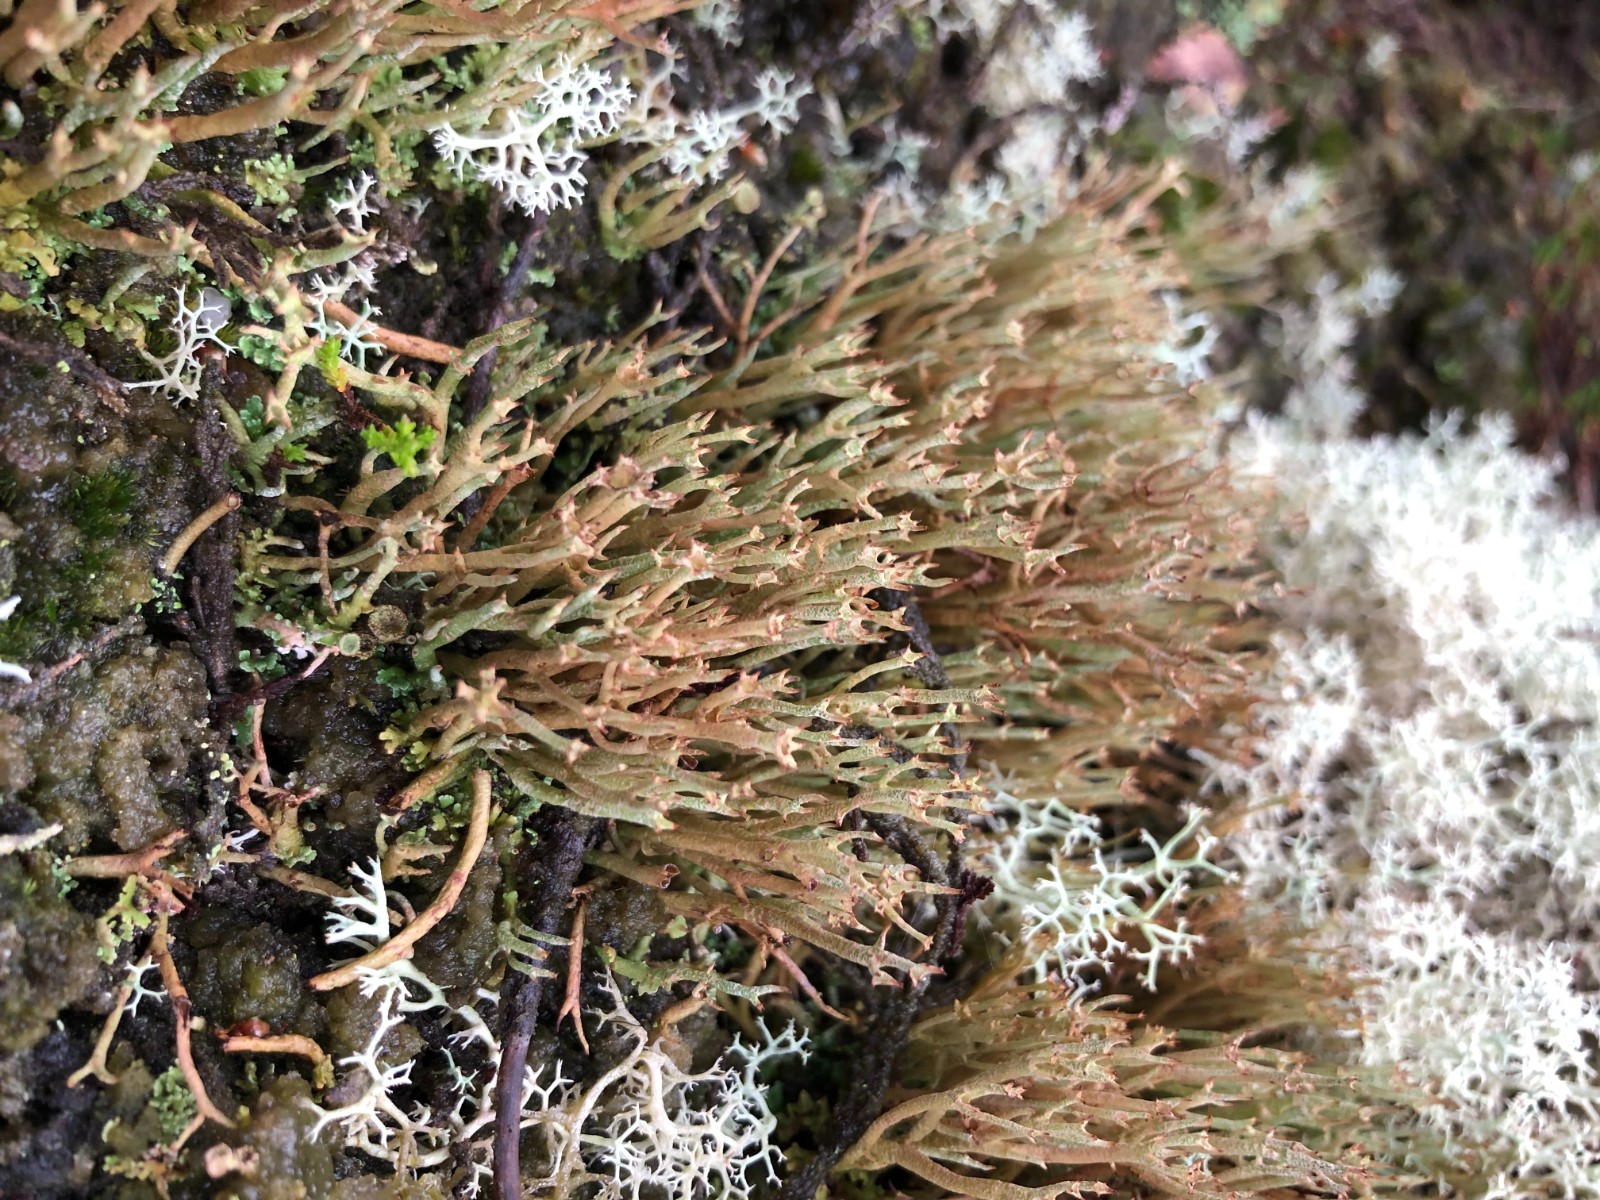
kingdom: Fungi
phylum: Ascomycota
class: Lecanoromycetes
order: Lecanorales
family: Cladoniaceae
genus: Cladonia
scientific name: Cladonia crispata
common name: takket bægerlav
